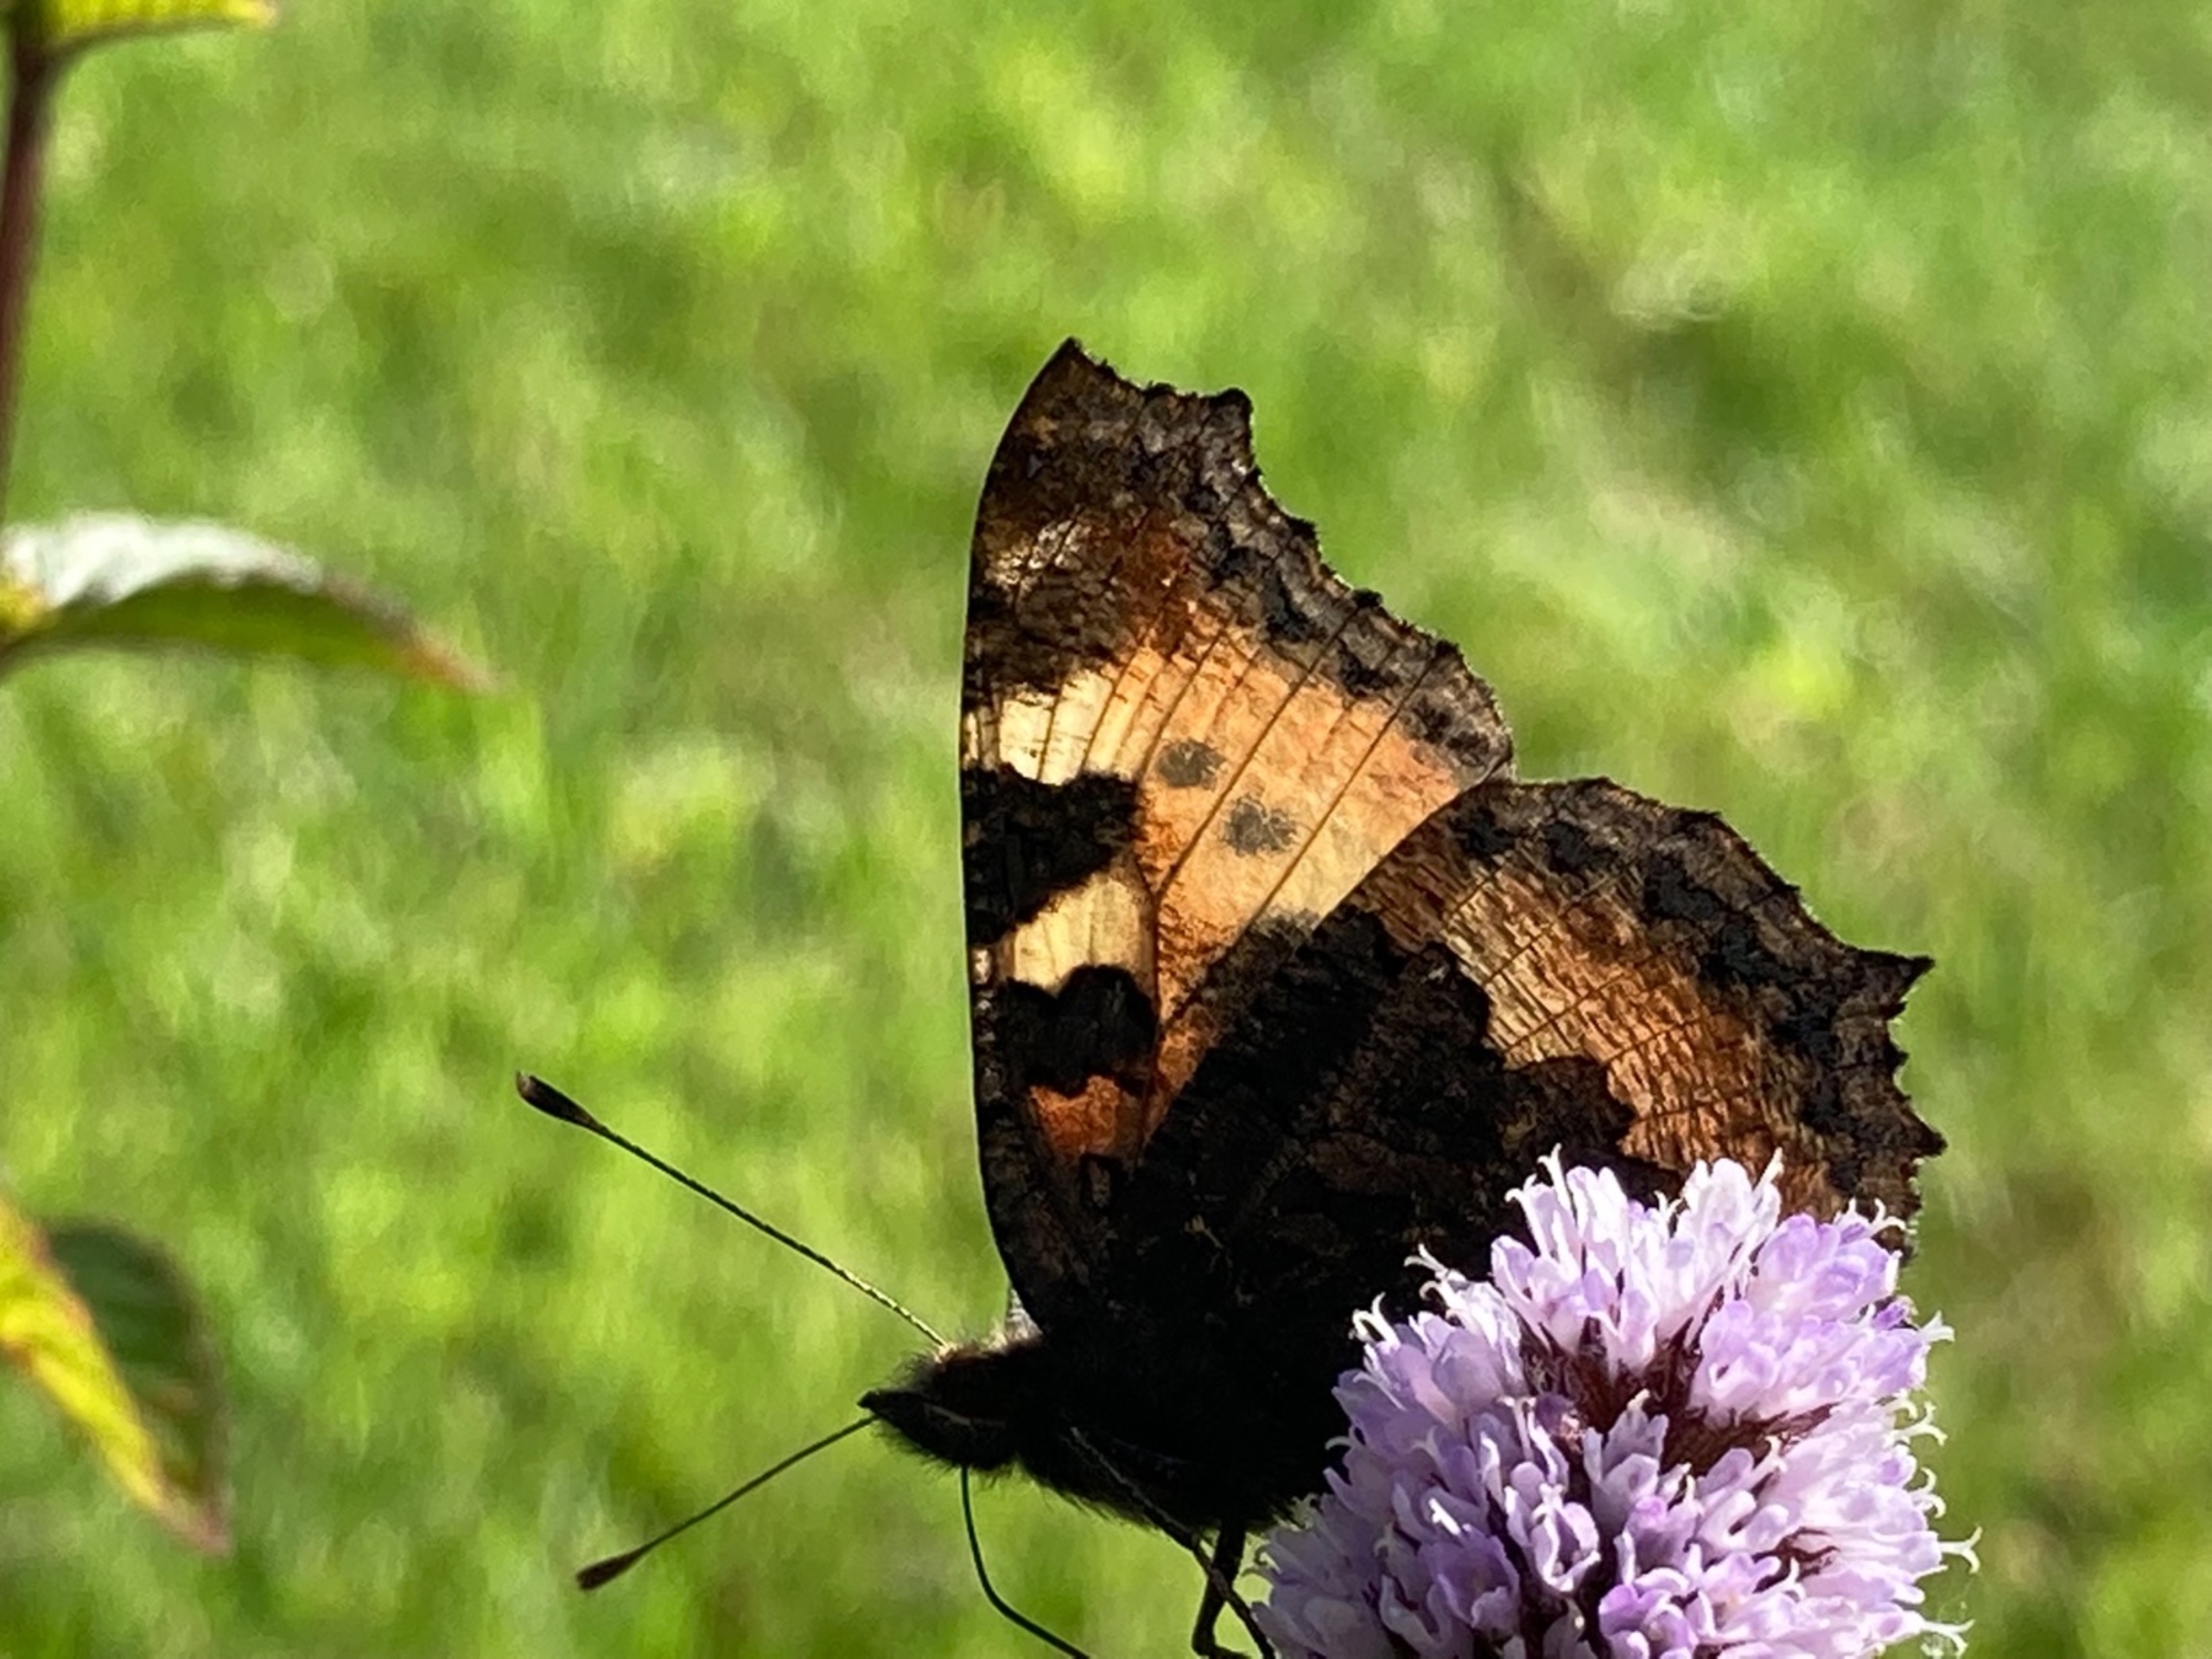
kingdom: Animalia
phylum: Arthropoda
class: Insecta
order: Lepidoptera
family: Nymphalidae
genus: Aglais
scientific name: Aglais urticae
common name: Nældens takvinge
